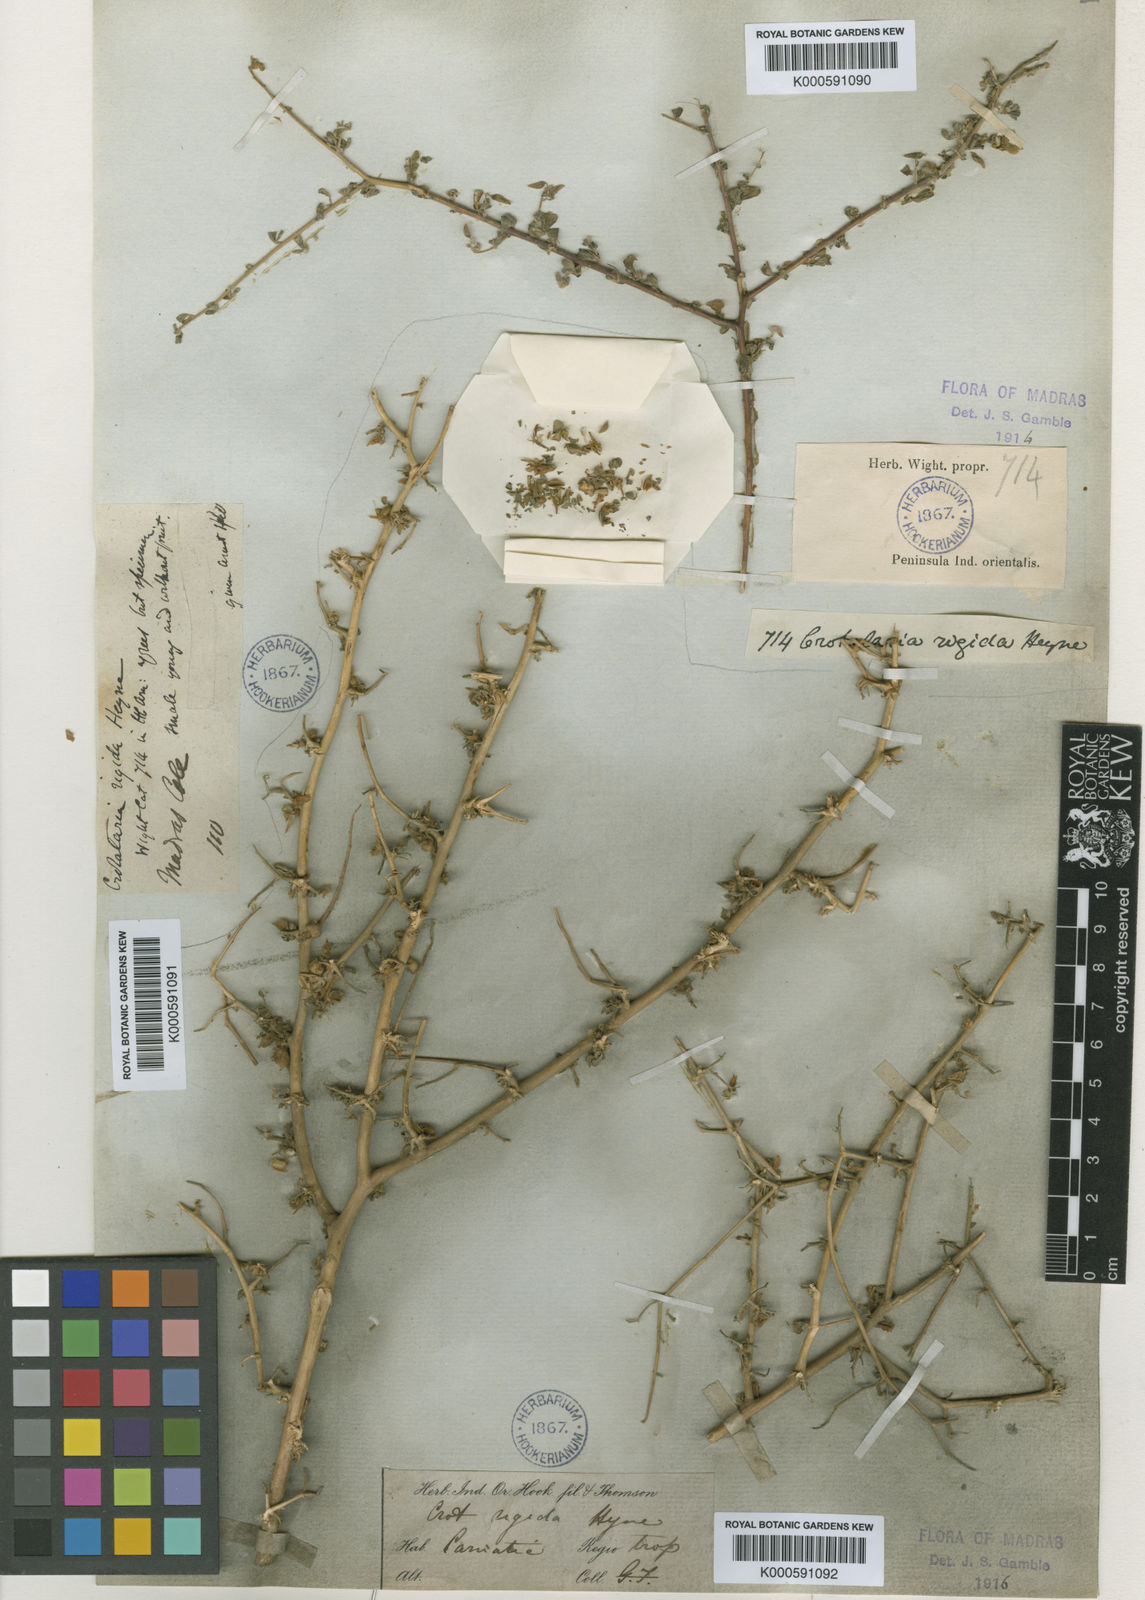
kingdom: Plantae
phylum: Tracheophyta
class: Magnoliopsida
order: Fabales
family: Fabaceae
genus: Crotalaria
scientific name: Crotalaria rigida
